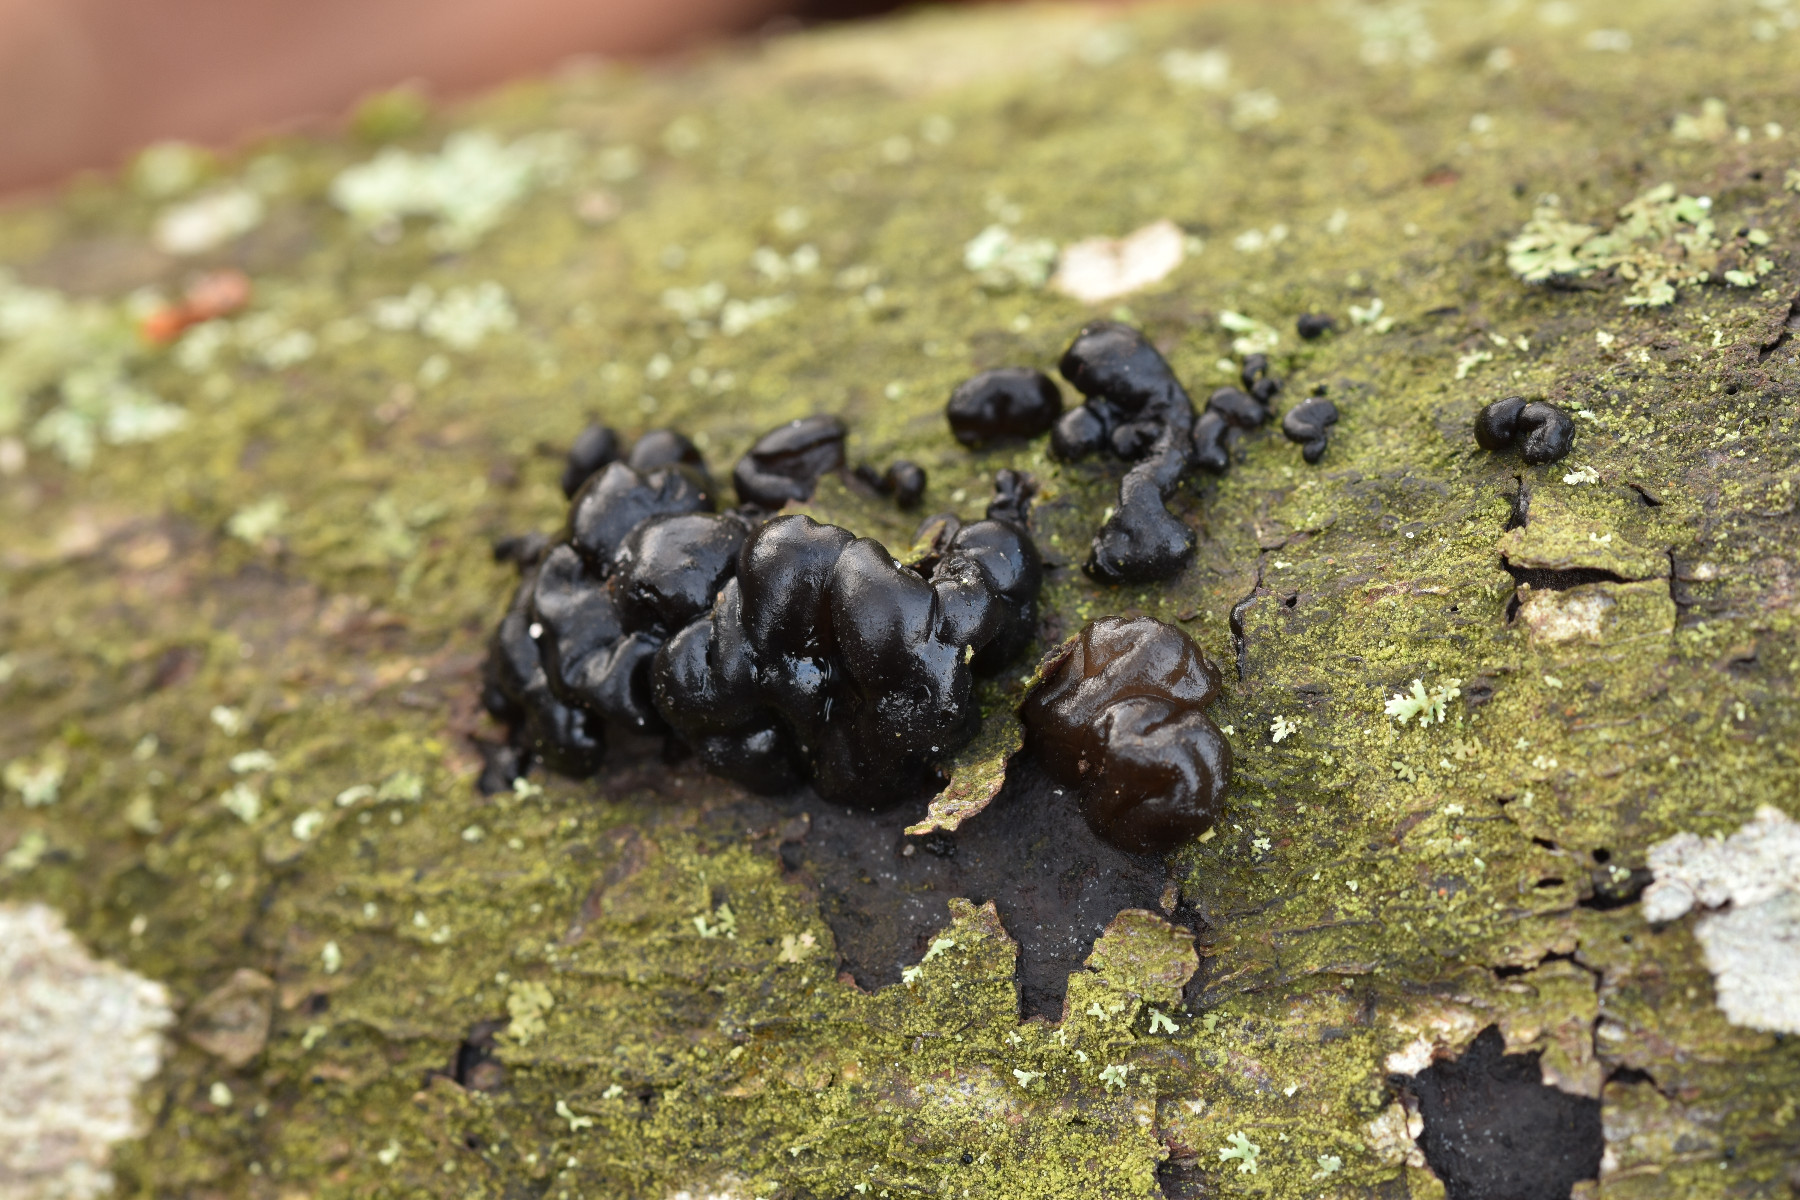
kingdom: Fungi
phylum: Basidiomycota
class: Agaricomycetes
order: Auriculariales
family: Auriculariaceae
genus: Exidia
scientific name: Exidia nigricans
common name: almindelig bævretop
